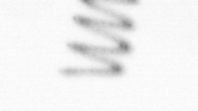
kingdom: Chromista
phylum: Ochrophyta
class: Bacillariophyceae
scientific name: Bacillariophyceae
